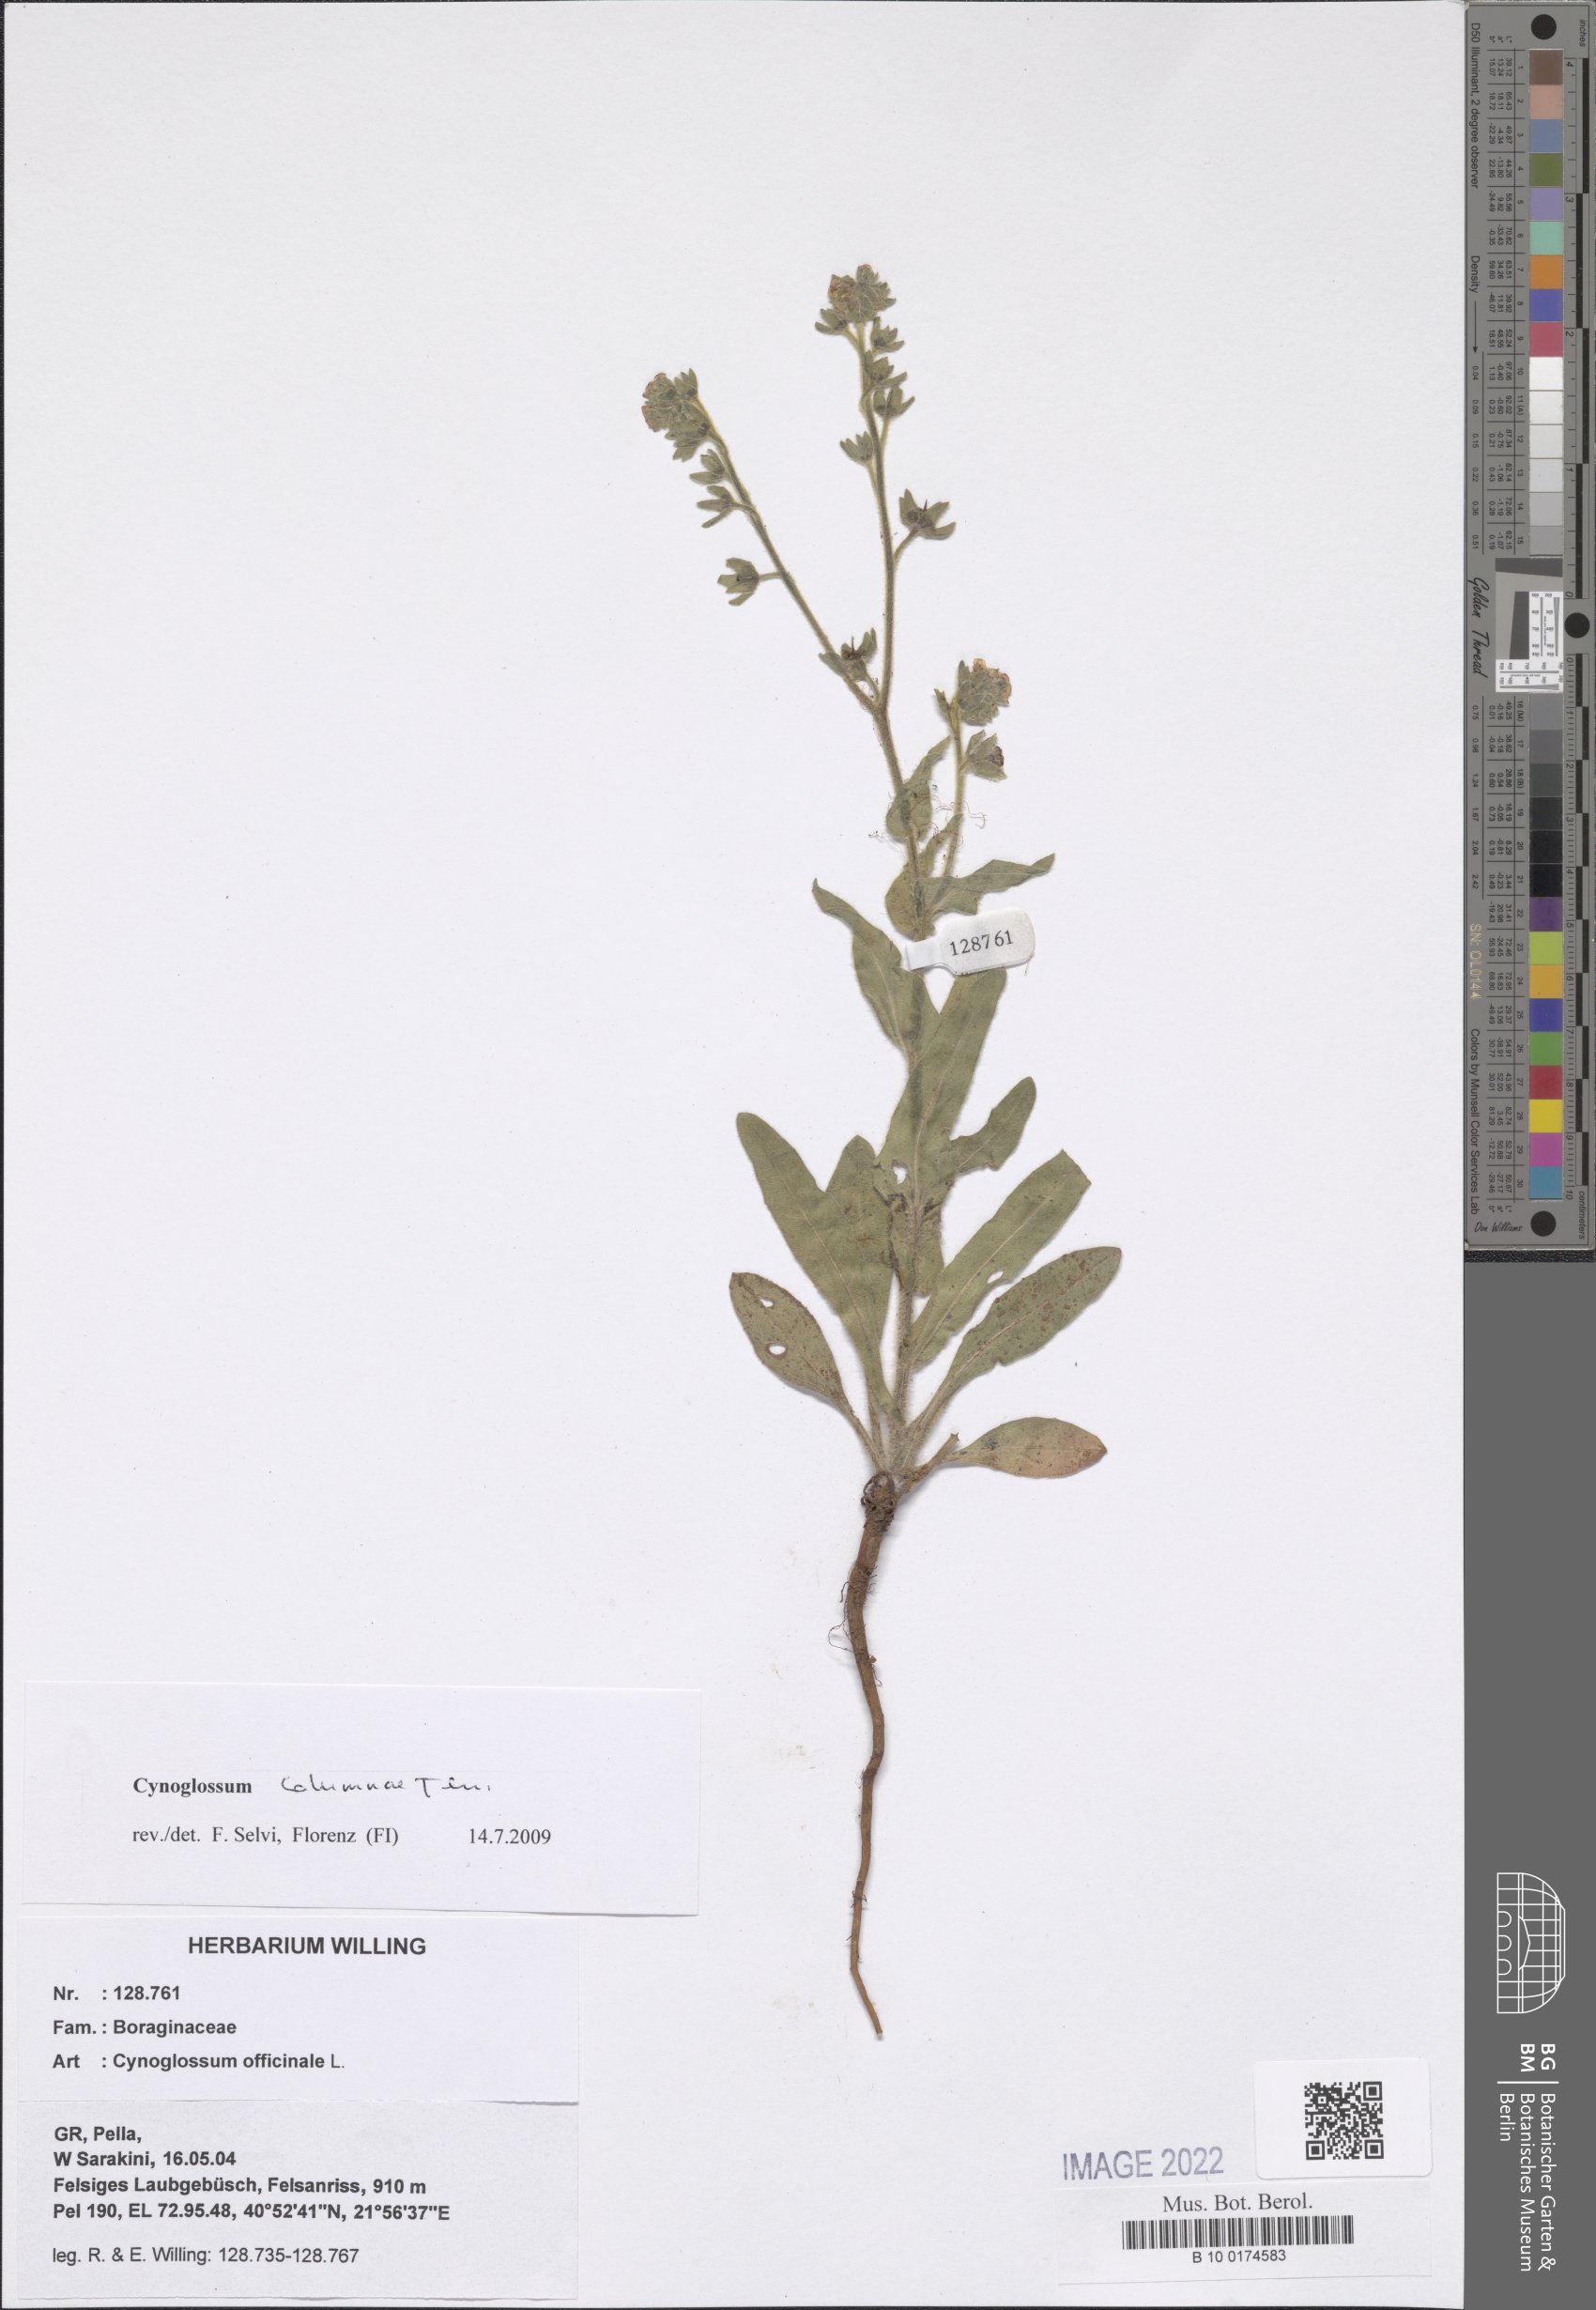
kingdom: Plantae
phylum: Tracheophyta
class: Magnoliopsida
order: Boraginales
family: Boraginaceae
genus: Rindera
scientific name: Rindera columnae
